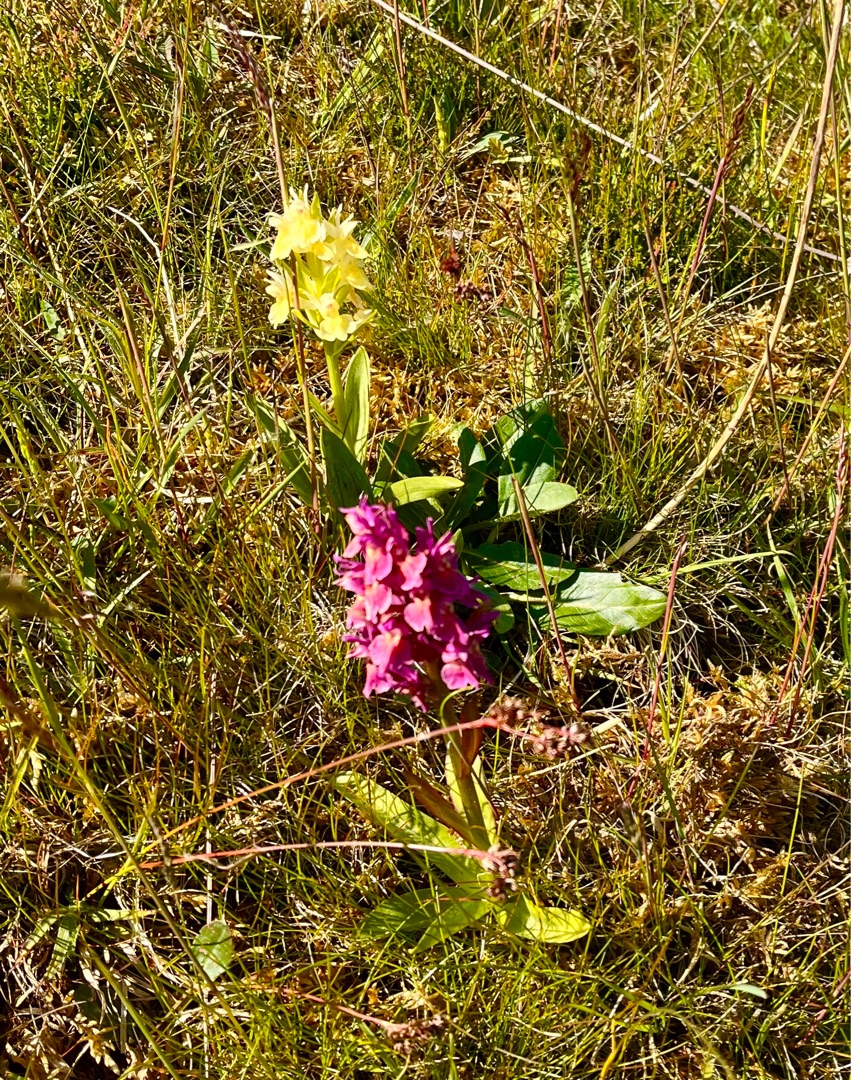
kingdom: Plantae
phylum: Tracheophyta
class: Liliopsida
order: Asparagales
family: Orchidaceae
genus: Dactylorhiza
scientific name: Dactylorhiza sambucina
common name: Hylde-gøgeurt
